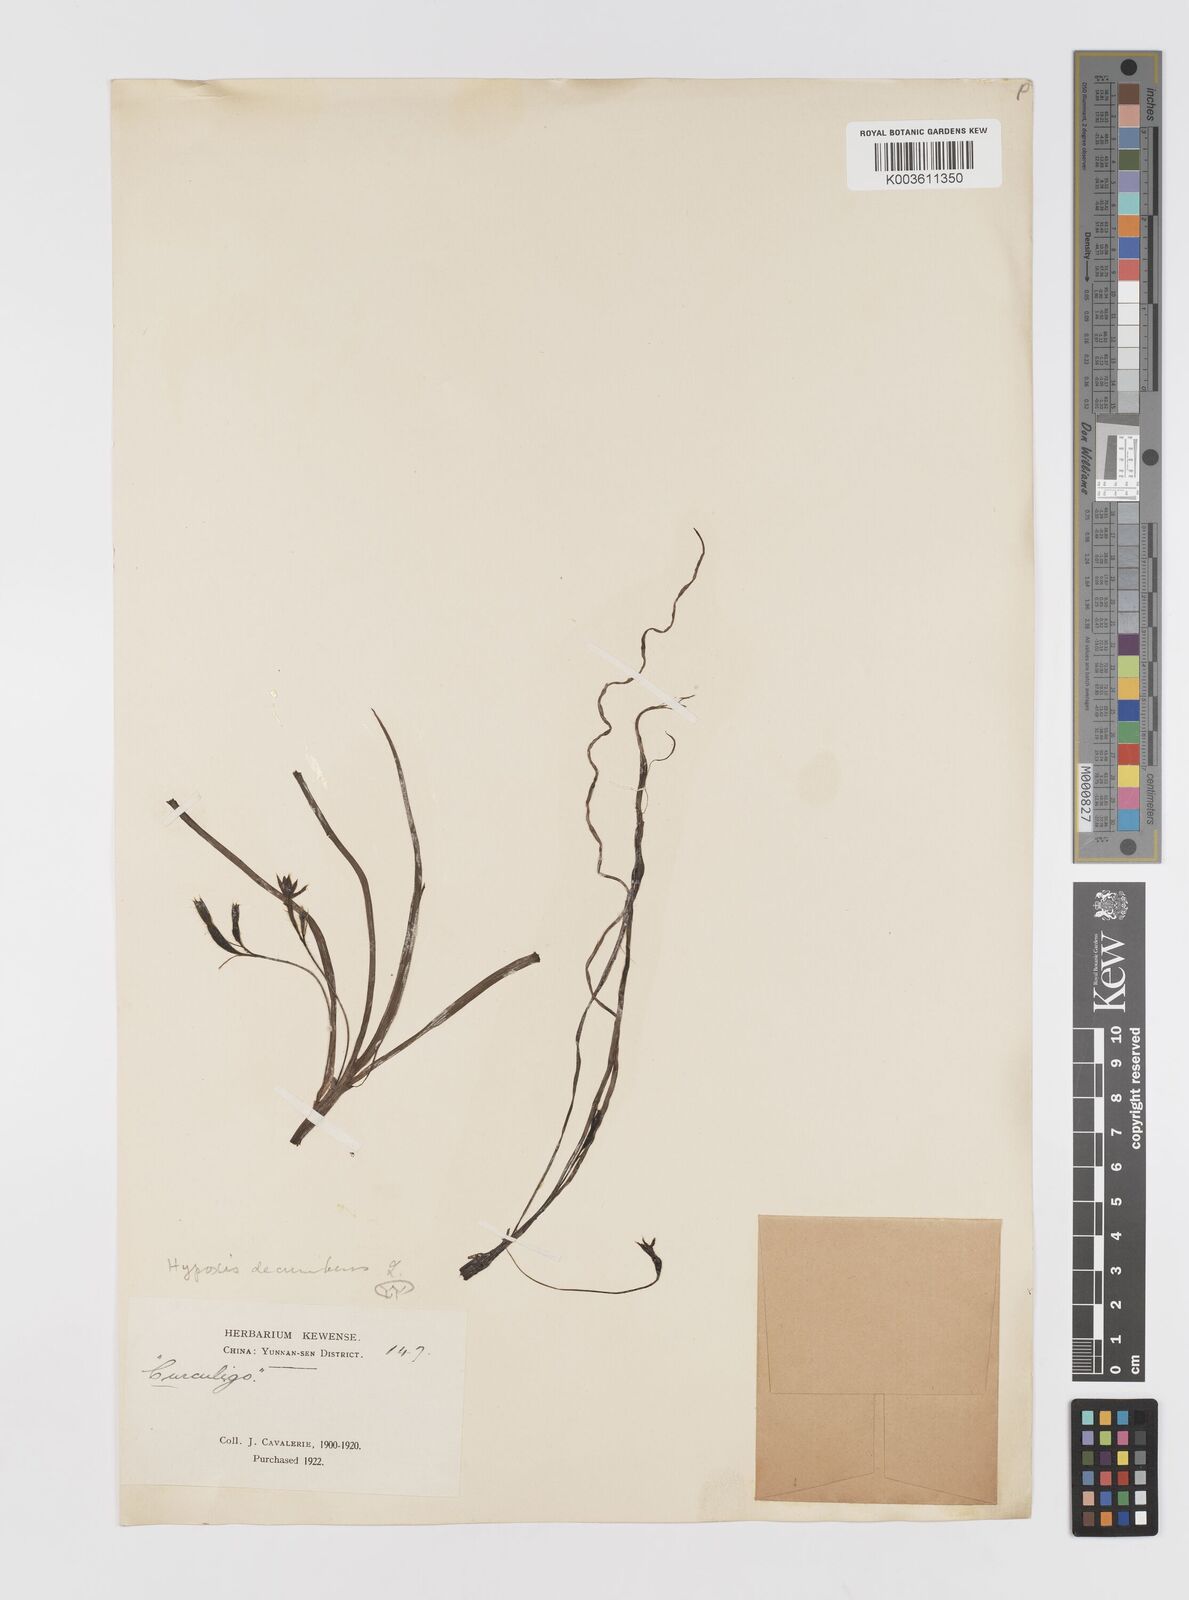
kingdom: Plantae
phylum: Tracheophyta
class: Liliopsida
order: Asparagales
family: Hypoxidaceae
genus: Hypoxis
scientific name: Hypoxis aurea
